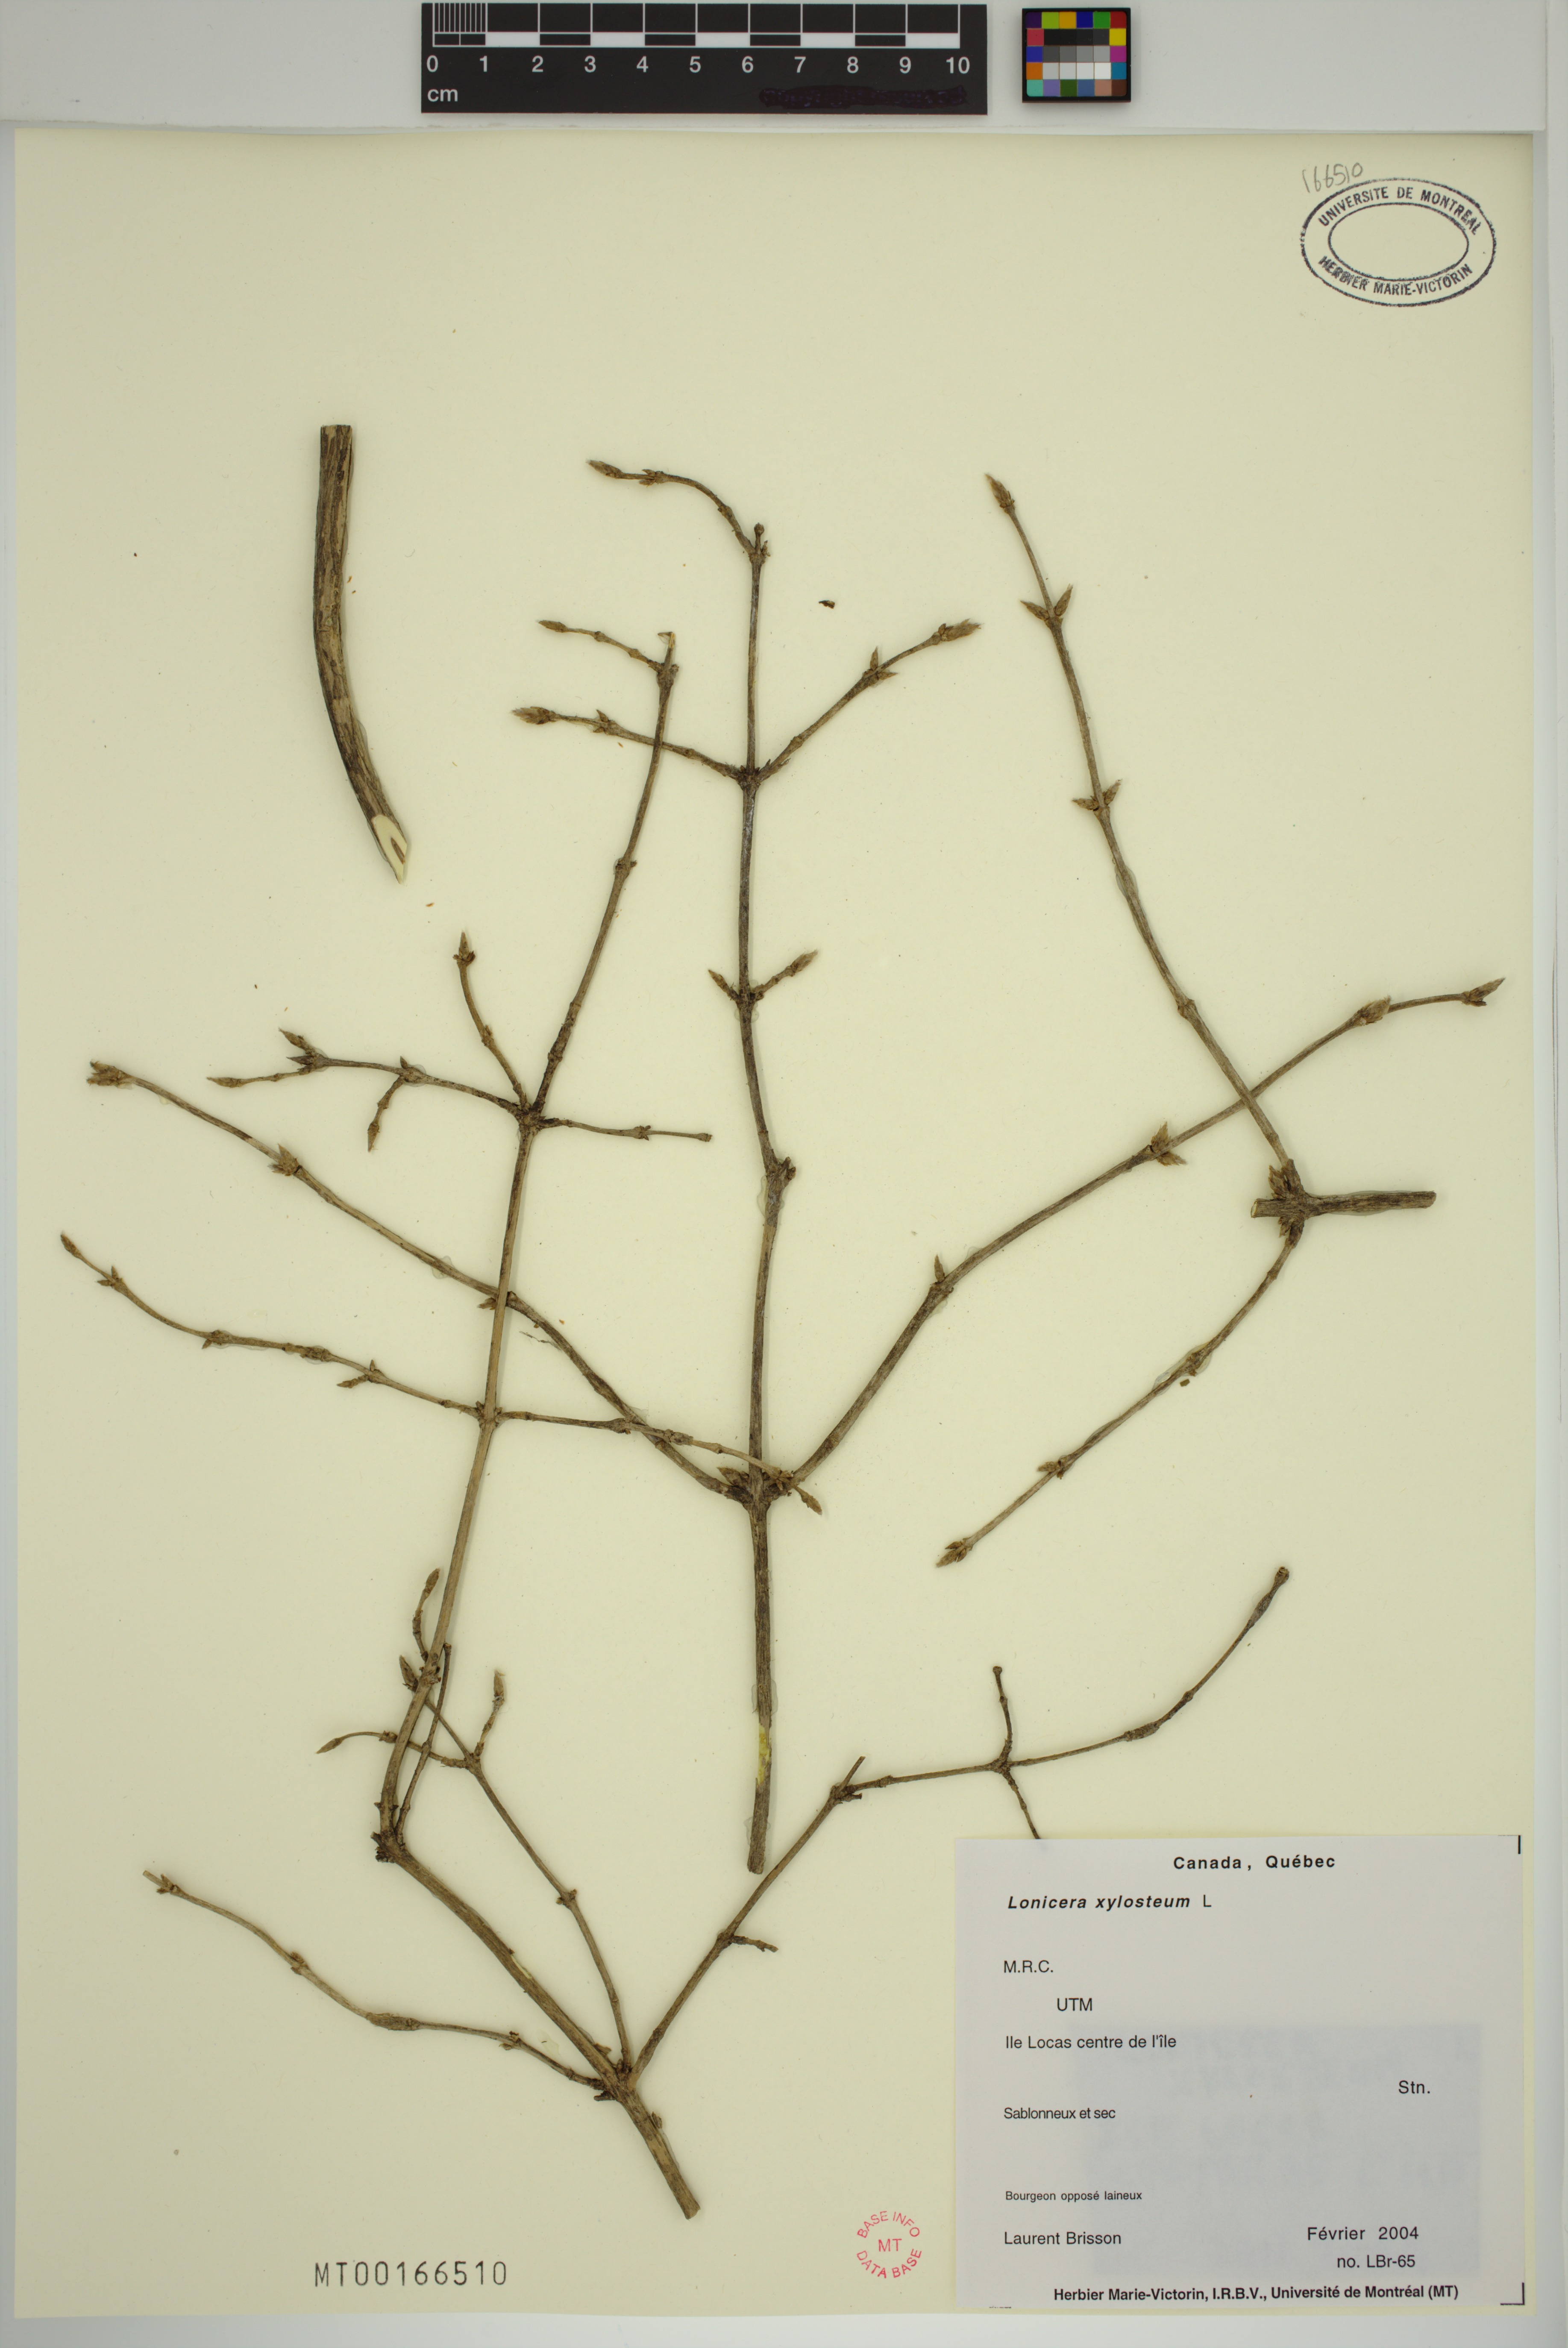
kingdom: Plantae
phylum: Tracheophyta
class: Magnoliopsida
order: Dipsacales
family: Caprifoliaceae
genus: Lonicera
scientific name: Lonicera tatarica
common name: Tatarian honeysuckle
